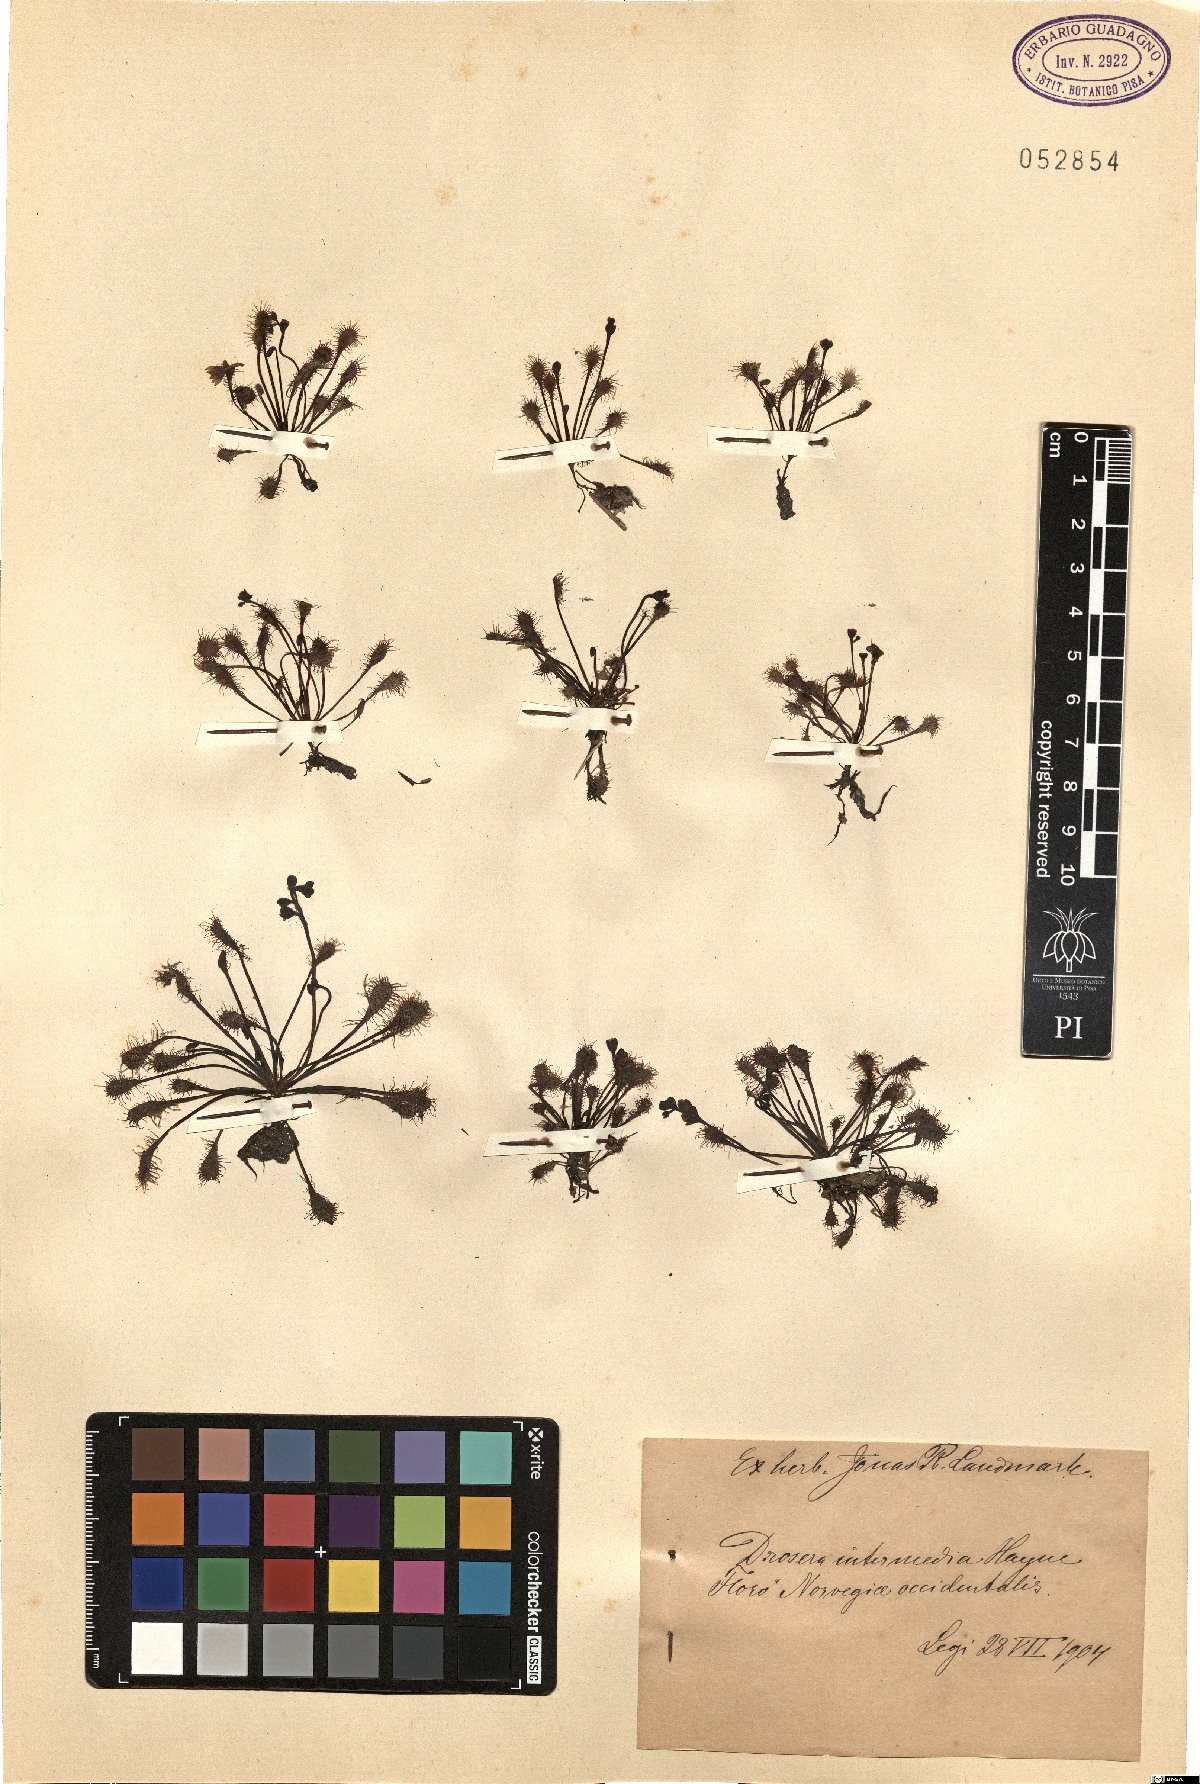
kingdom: Plantae
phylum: Tracheophyta
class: Magnoliopsida
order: Caryophyllales
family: Droseraceae
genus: Drosera
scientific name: Drosera intermedia
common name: Oblong-leaved sundew
